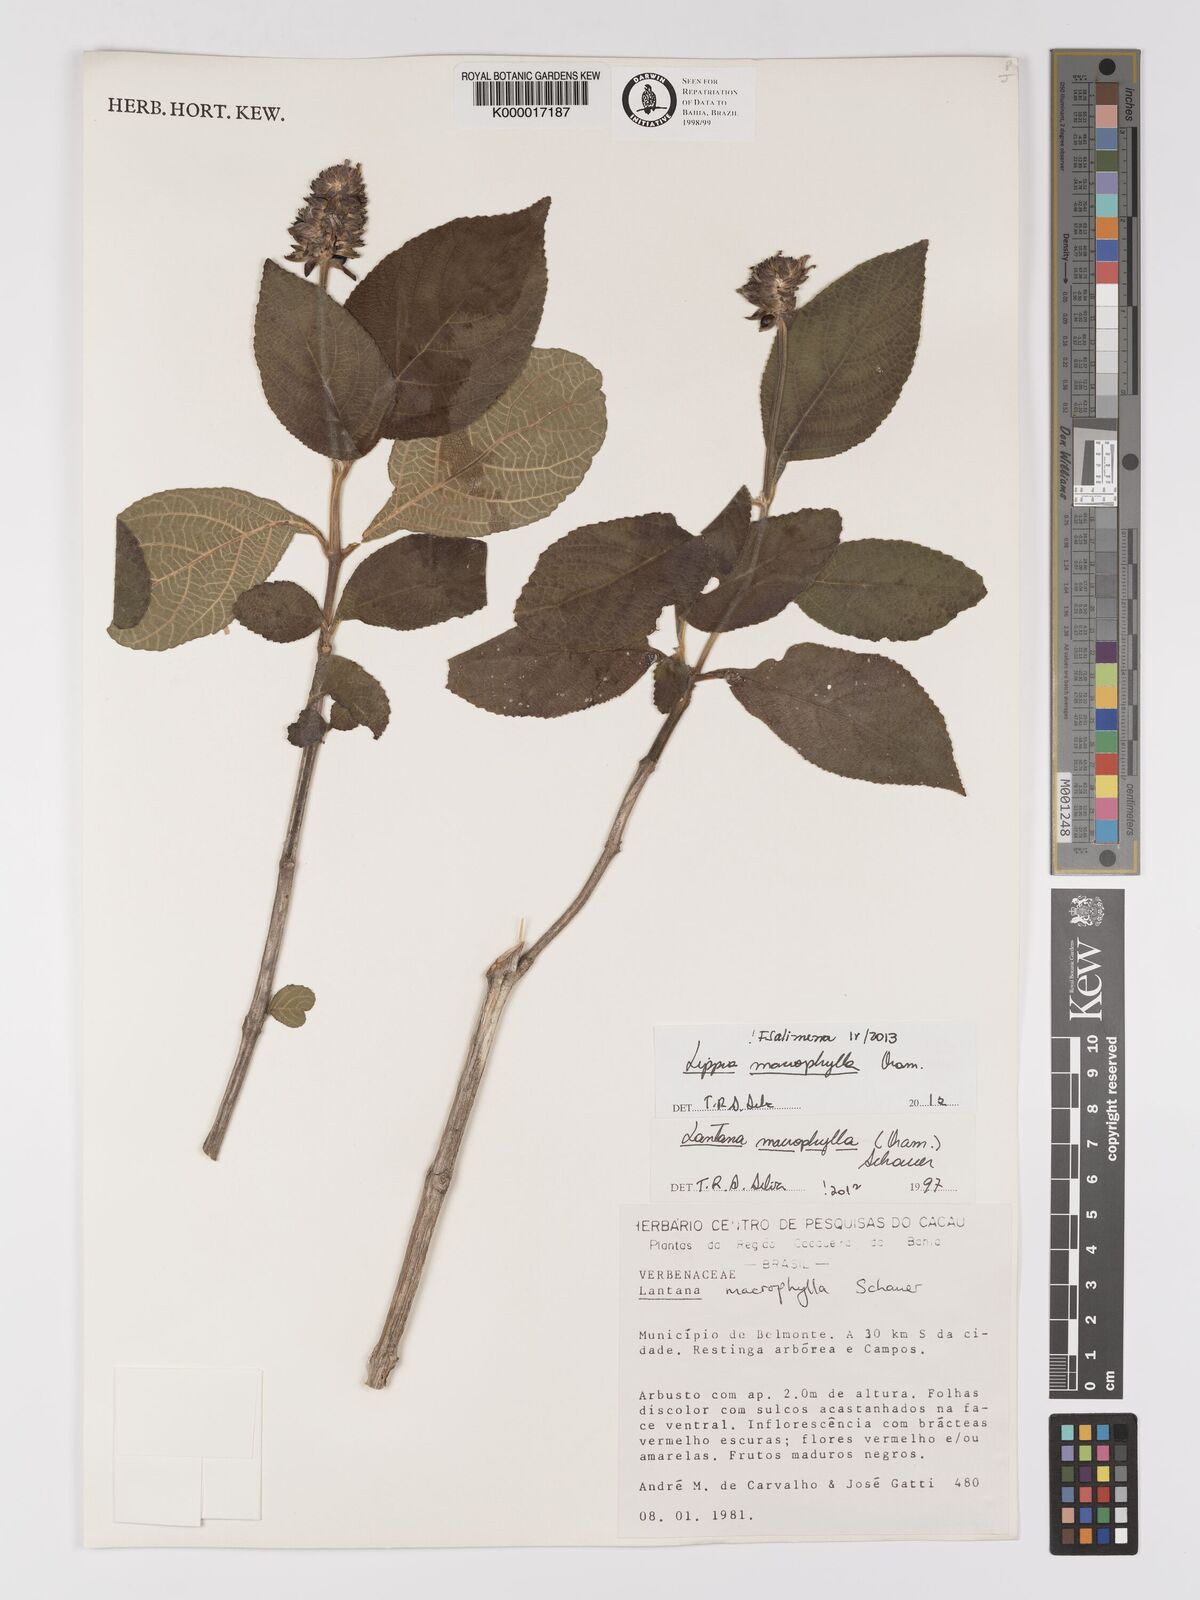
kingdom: Plantae
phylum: Tracheophyta
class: Magnoliopsida
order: Lamiales
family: Verbenaceae
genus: Lippia
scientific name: Lippia macrophylla
